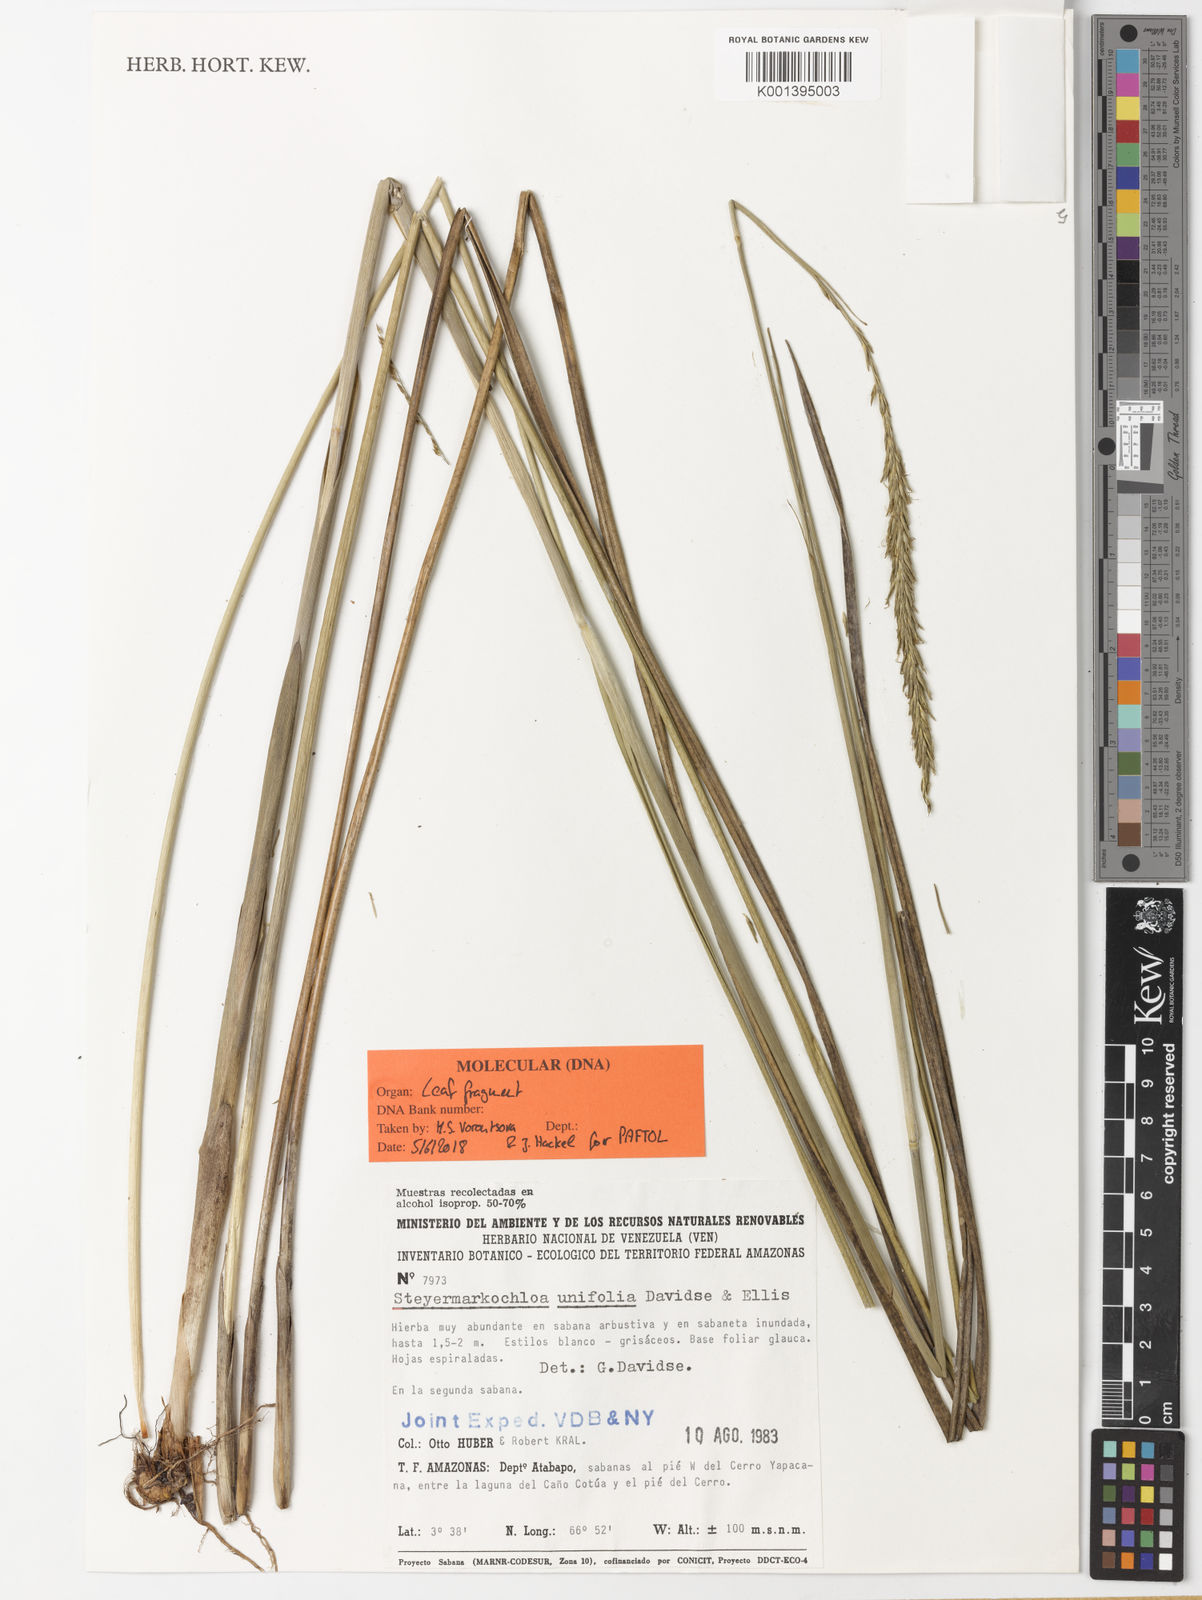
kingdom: Plantae
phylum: Tracheophyta
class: Liliopsida
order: Poales
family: Poaceae
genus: Steyermarkochloa
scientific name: Steyermarkochloa angustifolia
